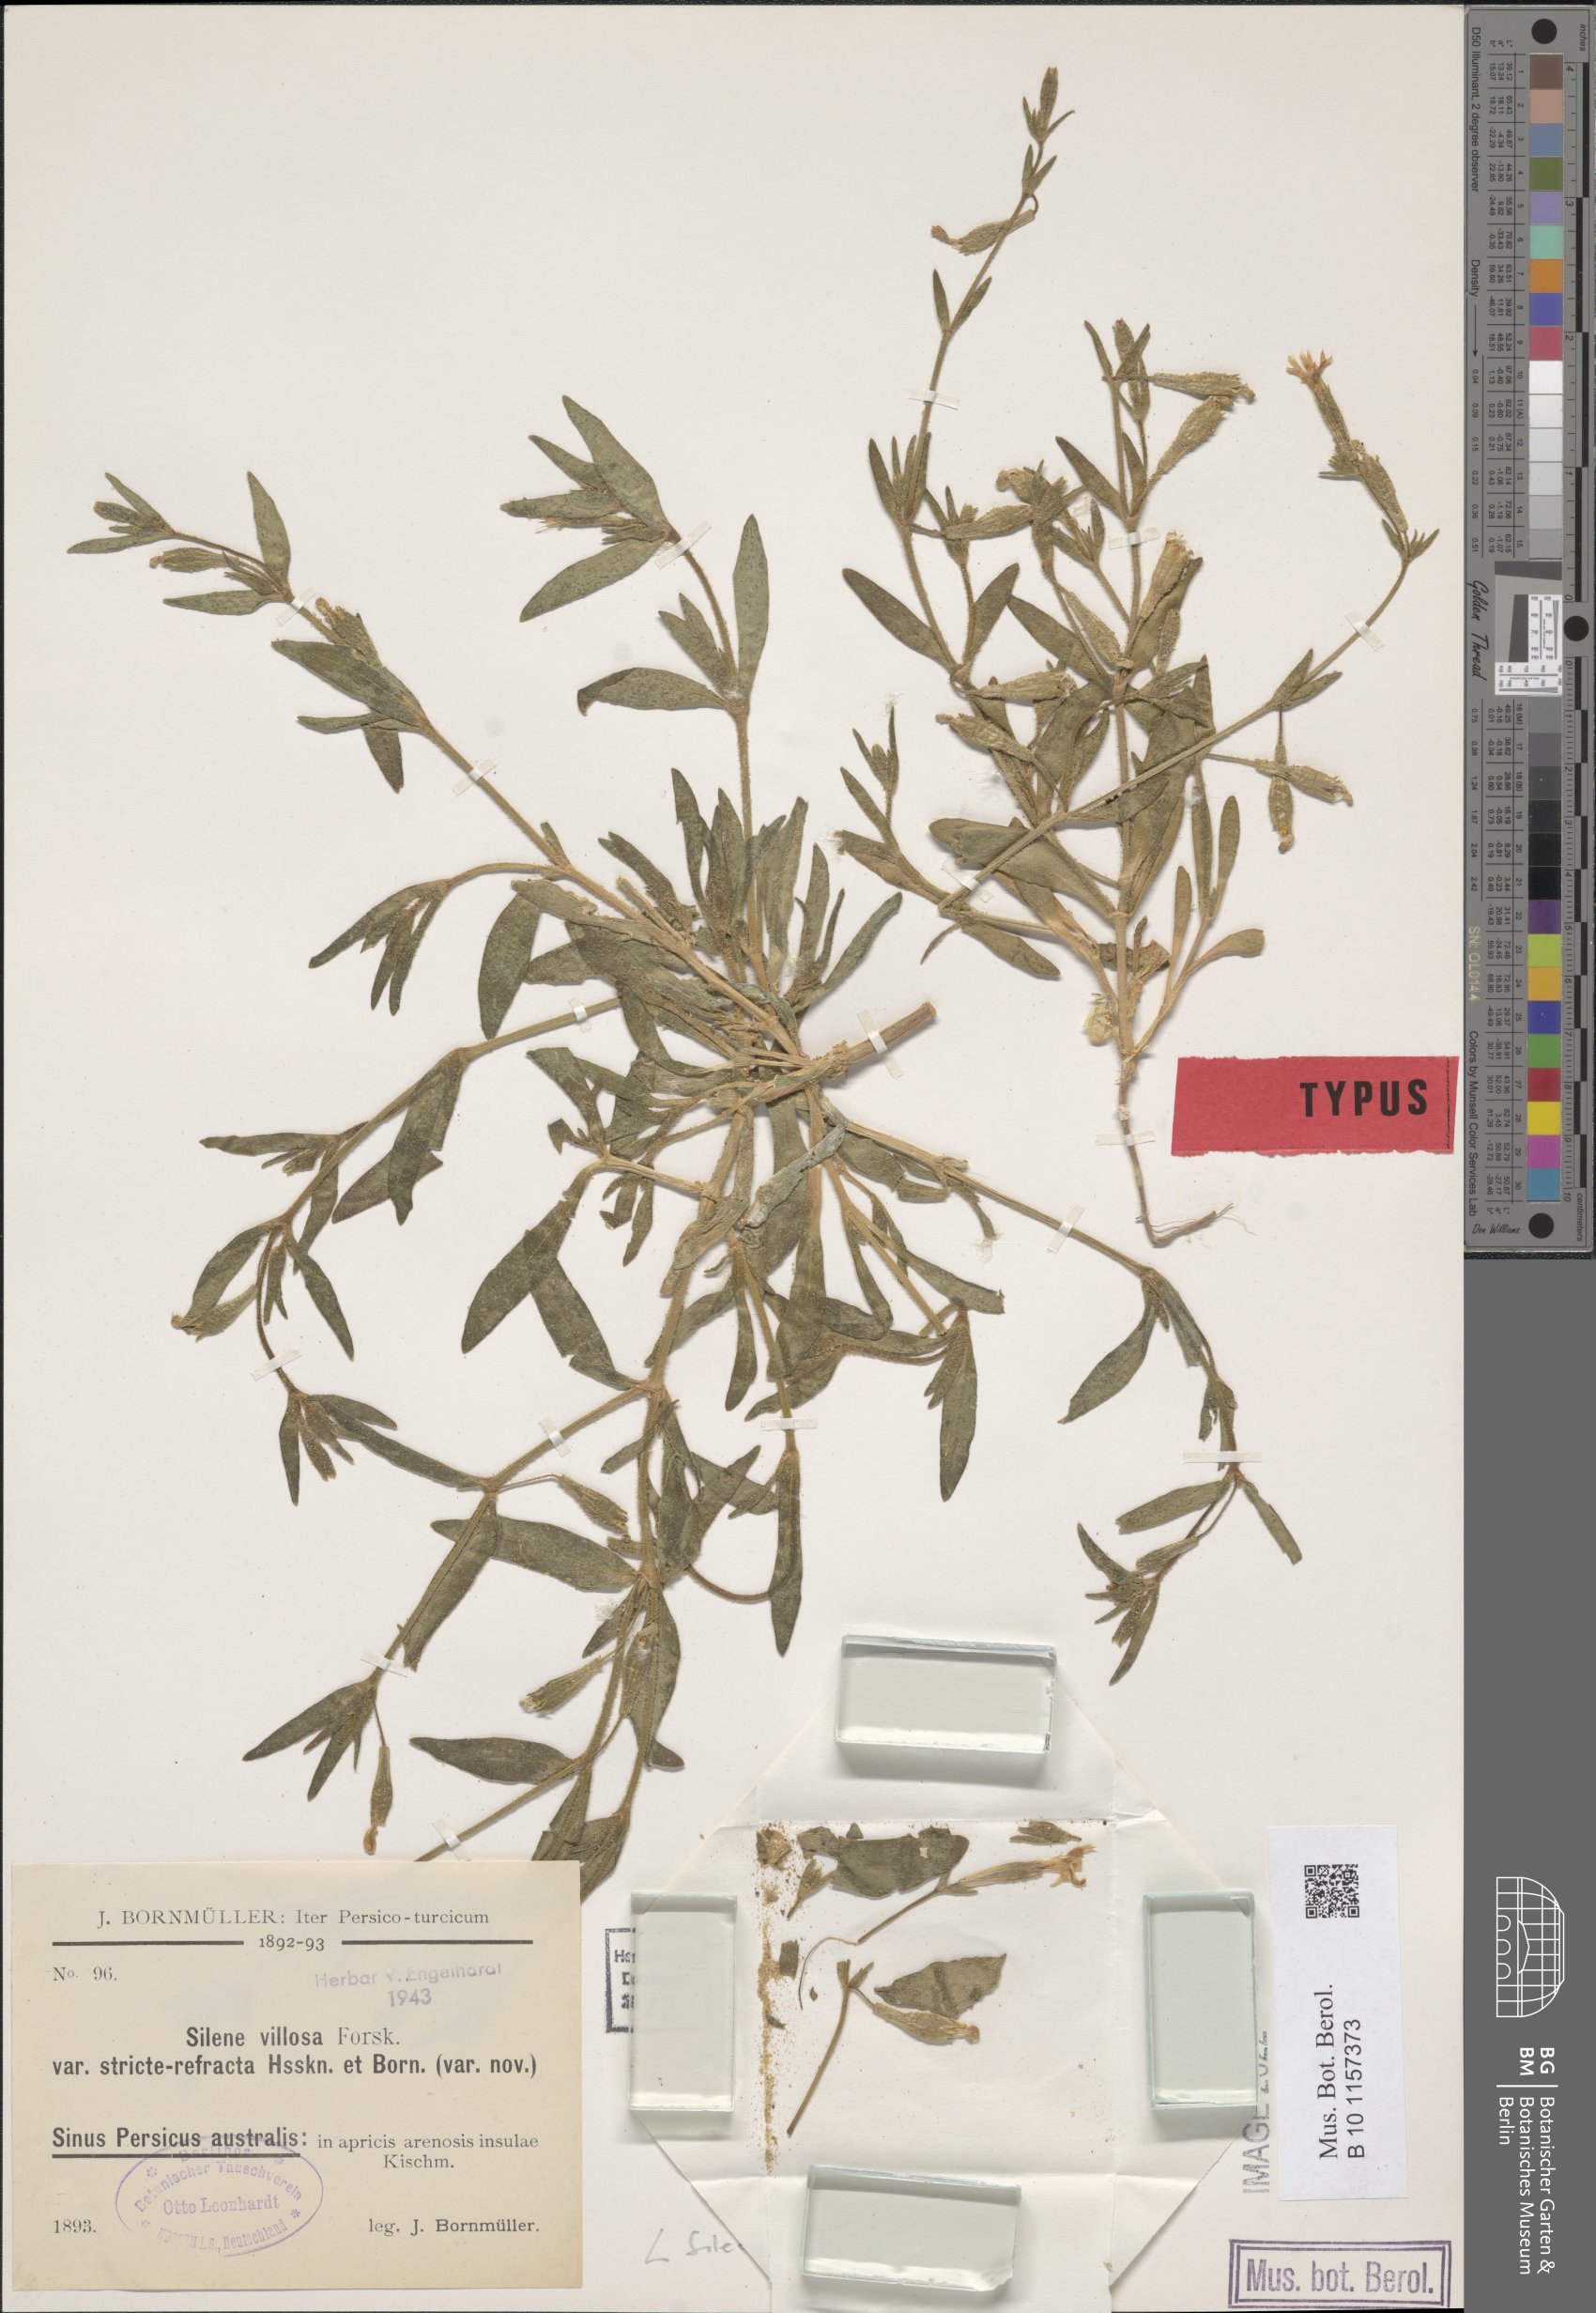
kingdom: Plantae
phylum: Tracheophyta
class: Magnoliopsida
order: Caryophyllales
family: Caryophyllaceae
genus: Silene
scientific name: Silene villosa
